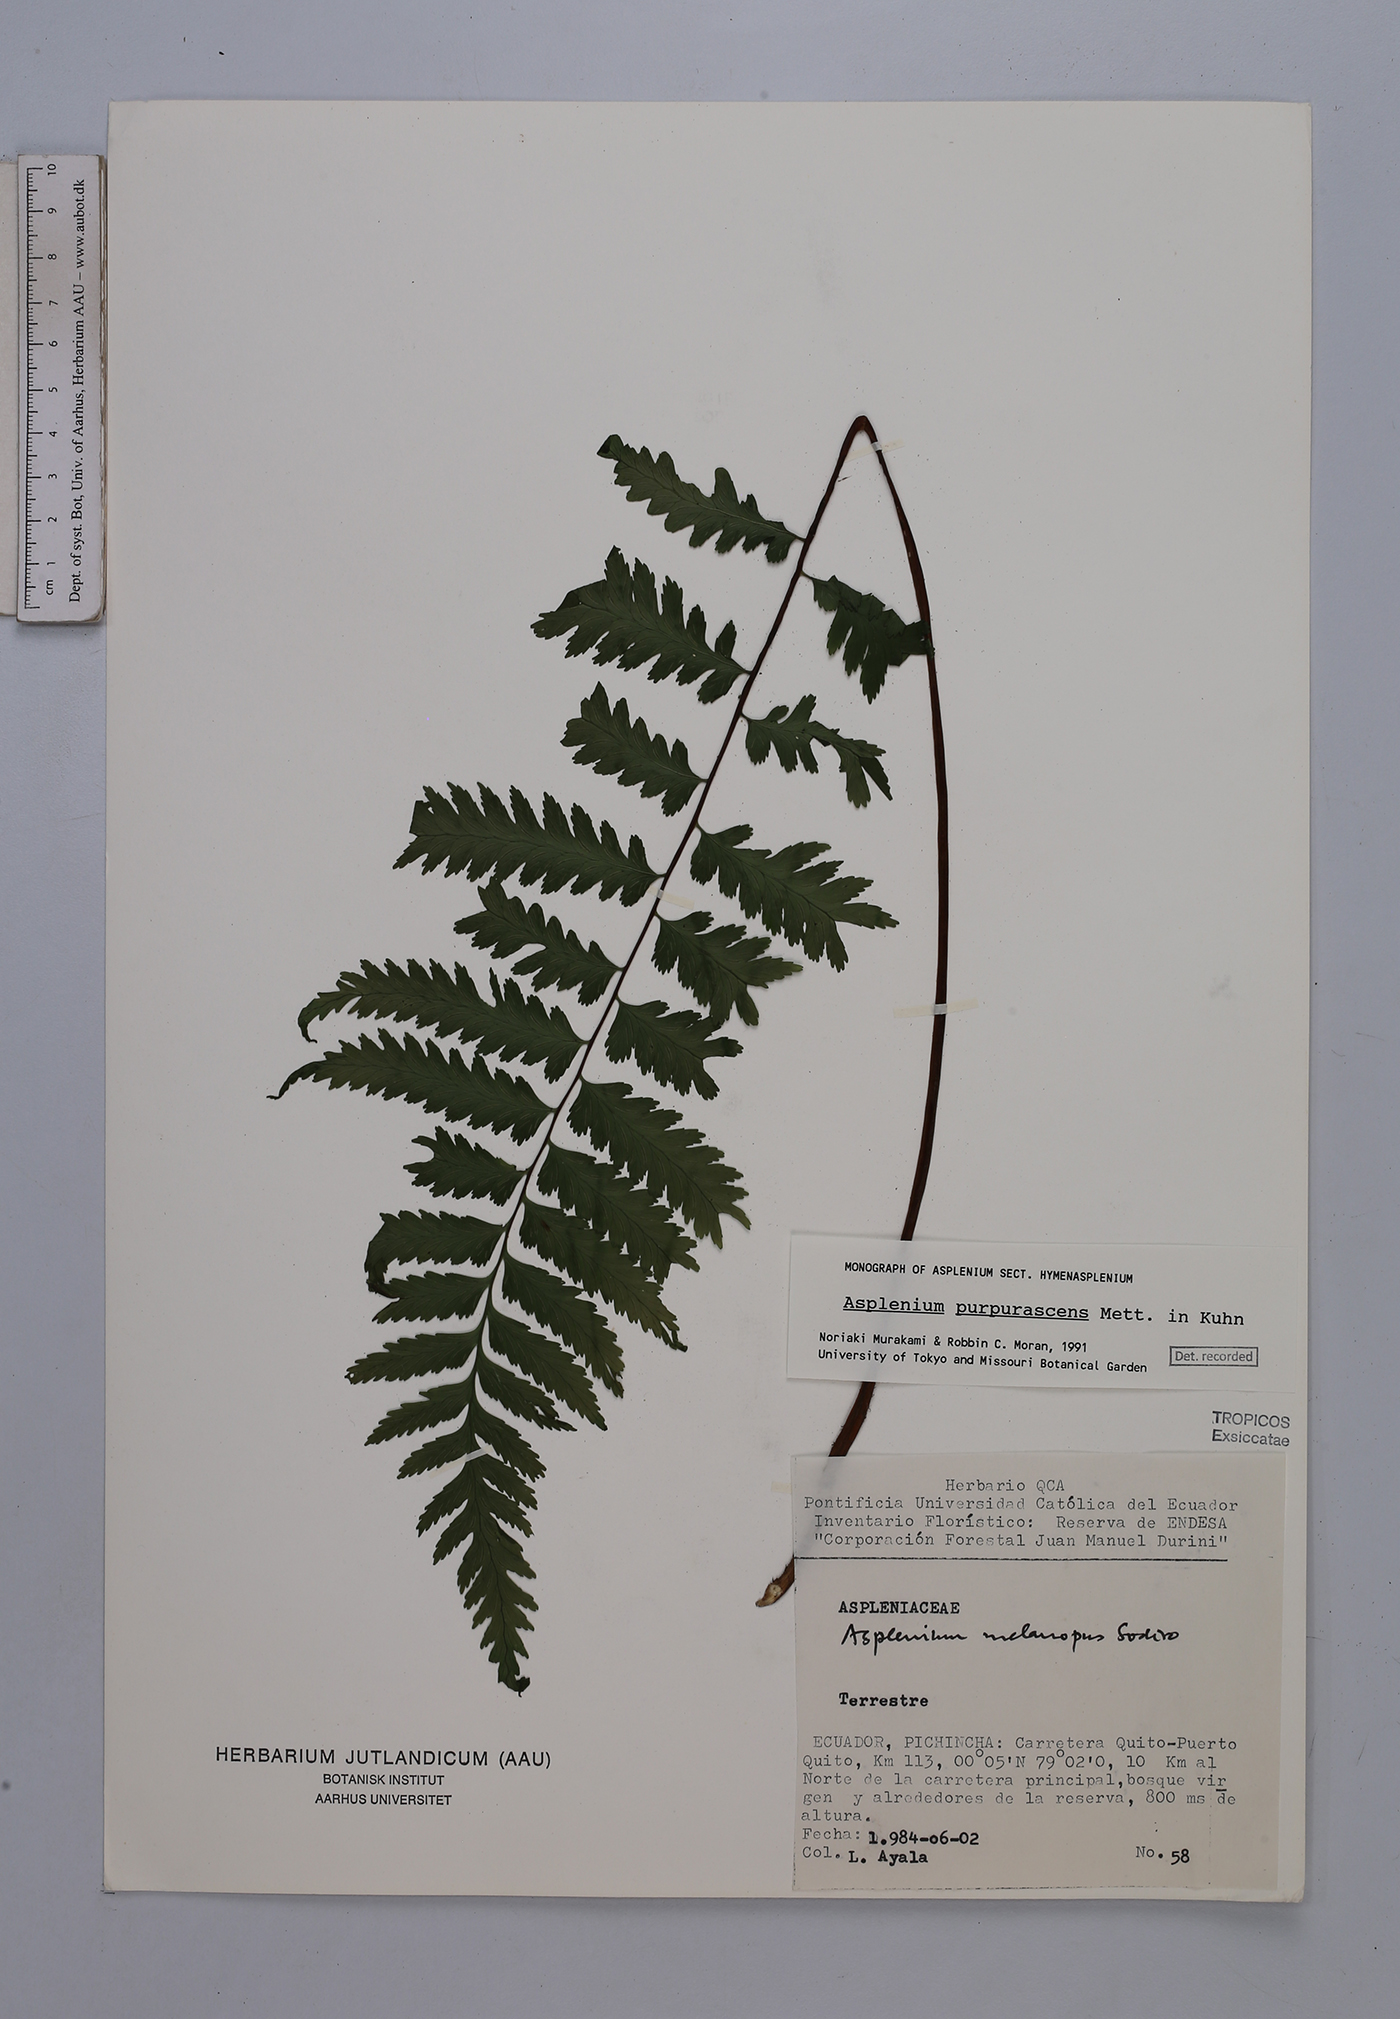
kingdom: Plantae
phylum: Tracheophyta
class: Polypodiopsida
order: Polypodiales
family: Aspleniaceae
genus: Hymenasplenium
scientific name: Hymenasplenium purpurascens
